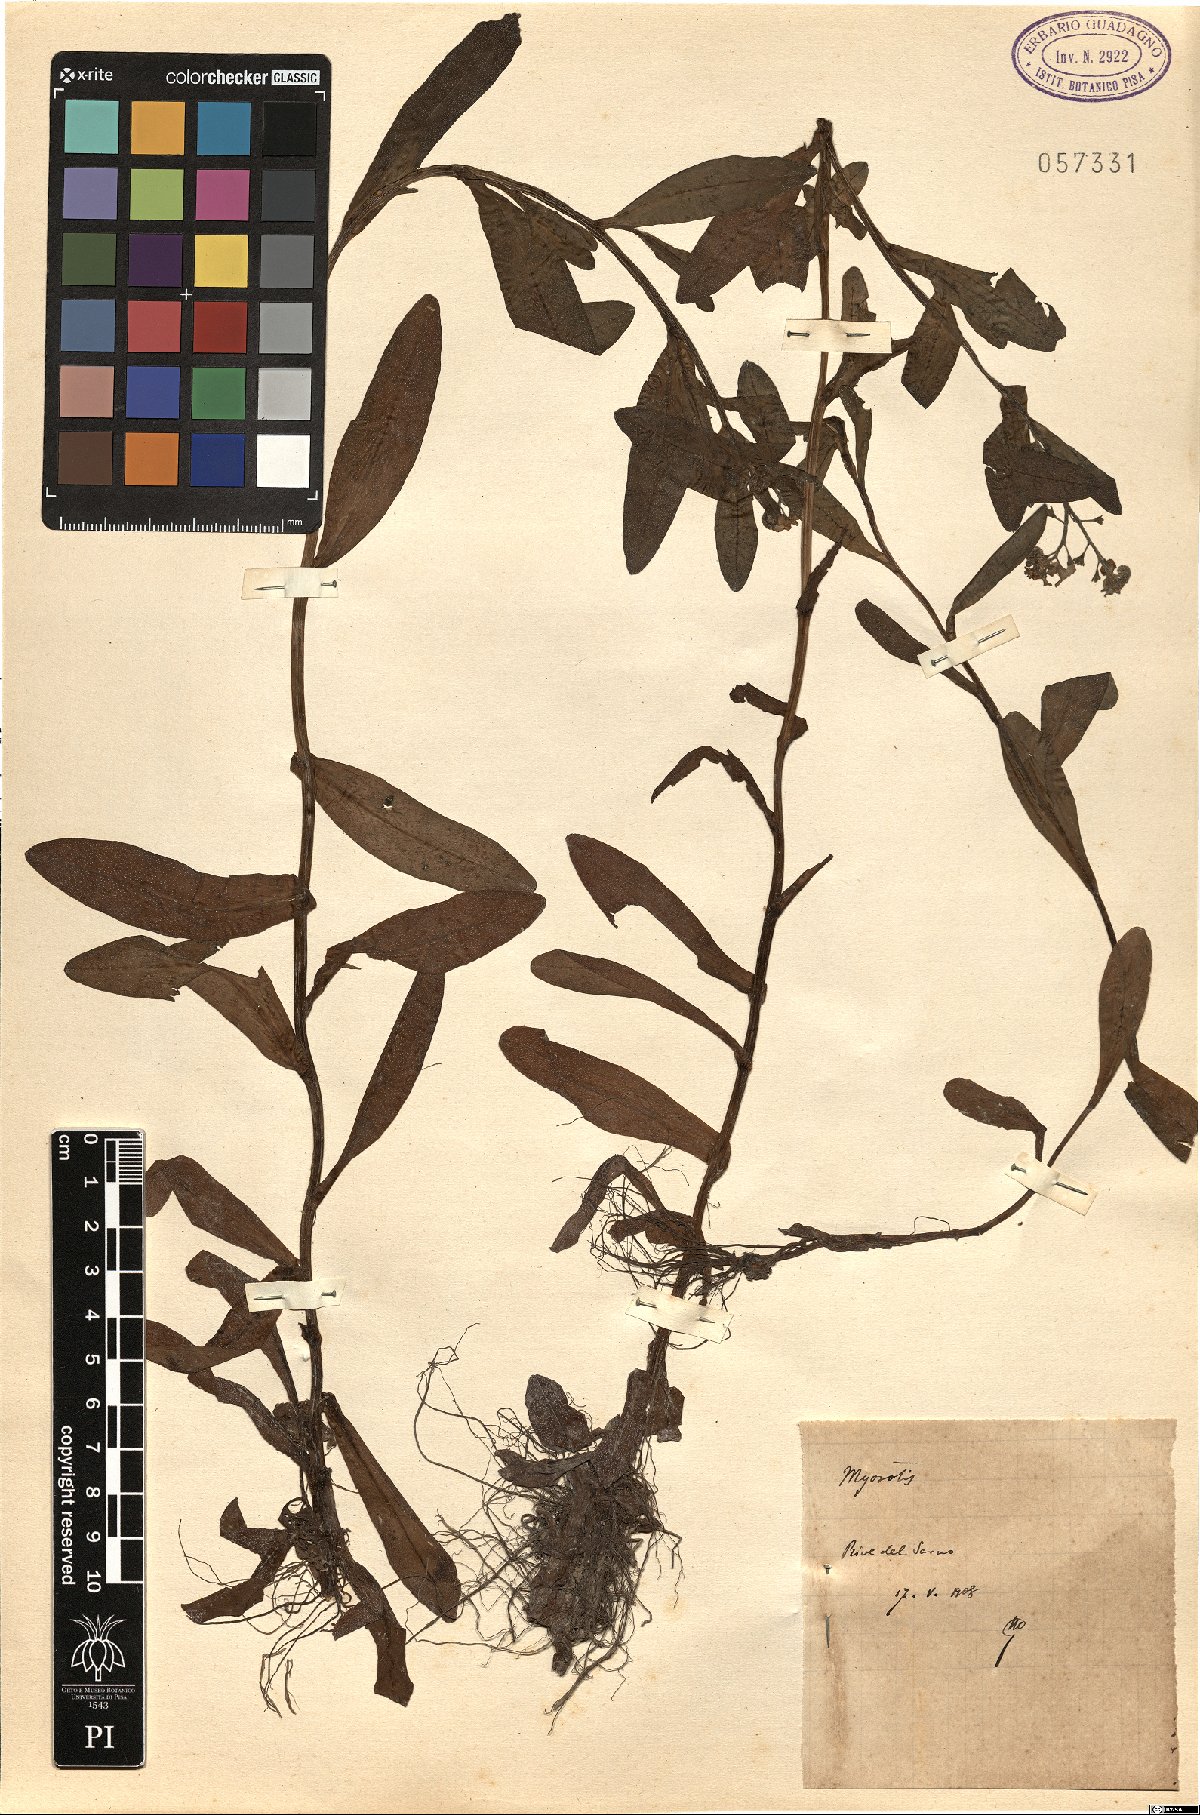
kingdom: Plantae
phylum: Tracheophyta
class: Magnoliopsida
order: Boraginales
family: Boraginaceae
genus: Myosotis
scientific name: Myosotis
